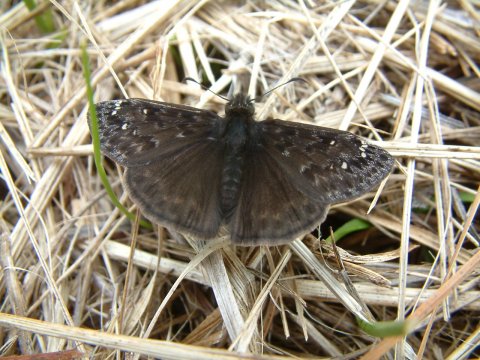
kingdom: Animalia
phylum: Arthropoda
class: Insecta
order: Lepidoptera
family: Hesperiidae
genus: Gesta
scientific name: Gesta
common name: Juvenal's Duskywing
